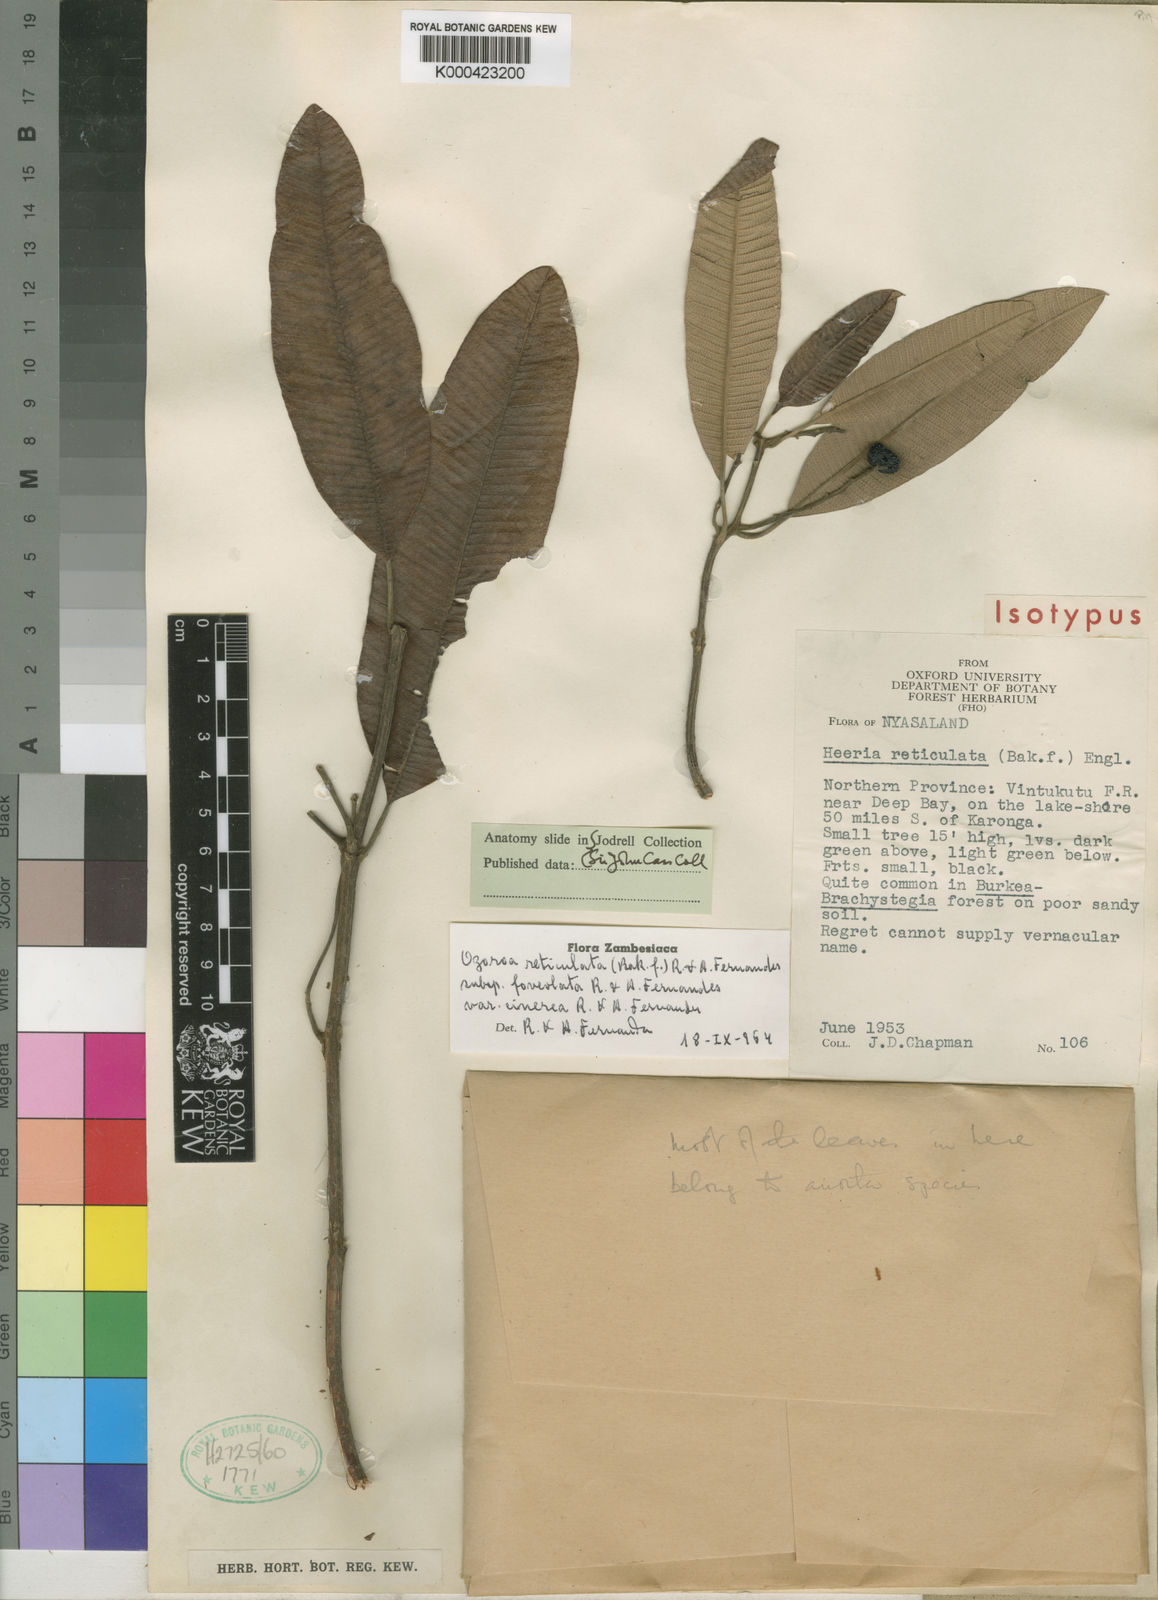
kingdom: Plantae
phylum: Tracheophyta
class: Magnoliopsida
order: Sapindales
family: Anacardiaceae
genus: Ozoroa
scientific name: Ozoroa insignis
